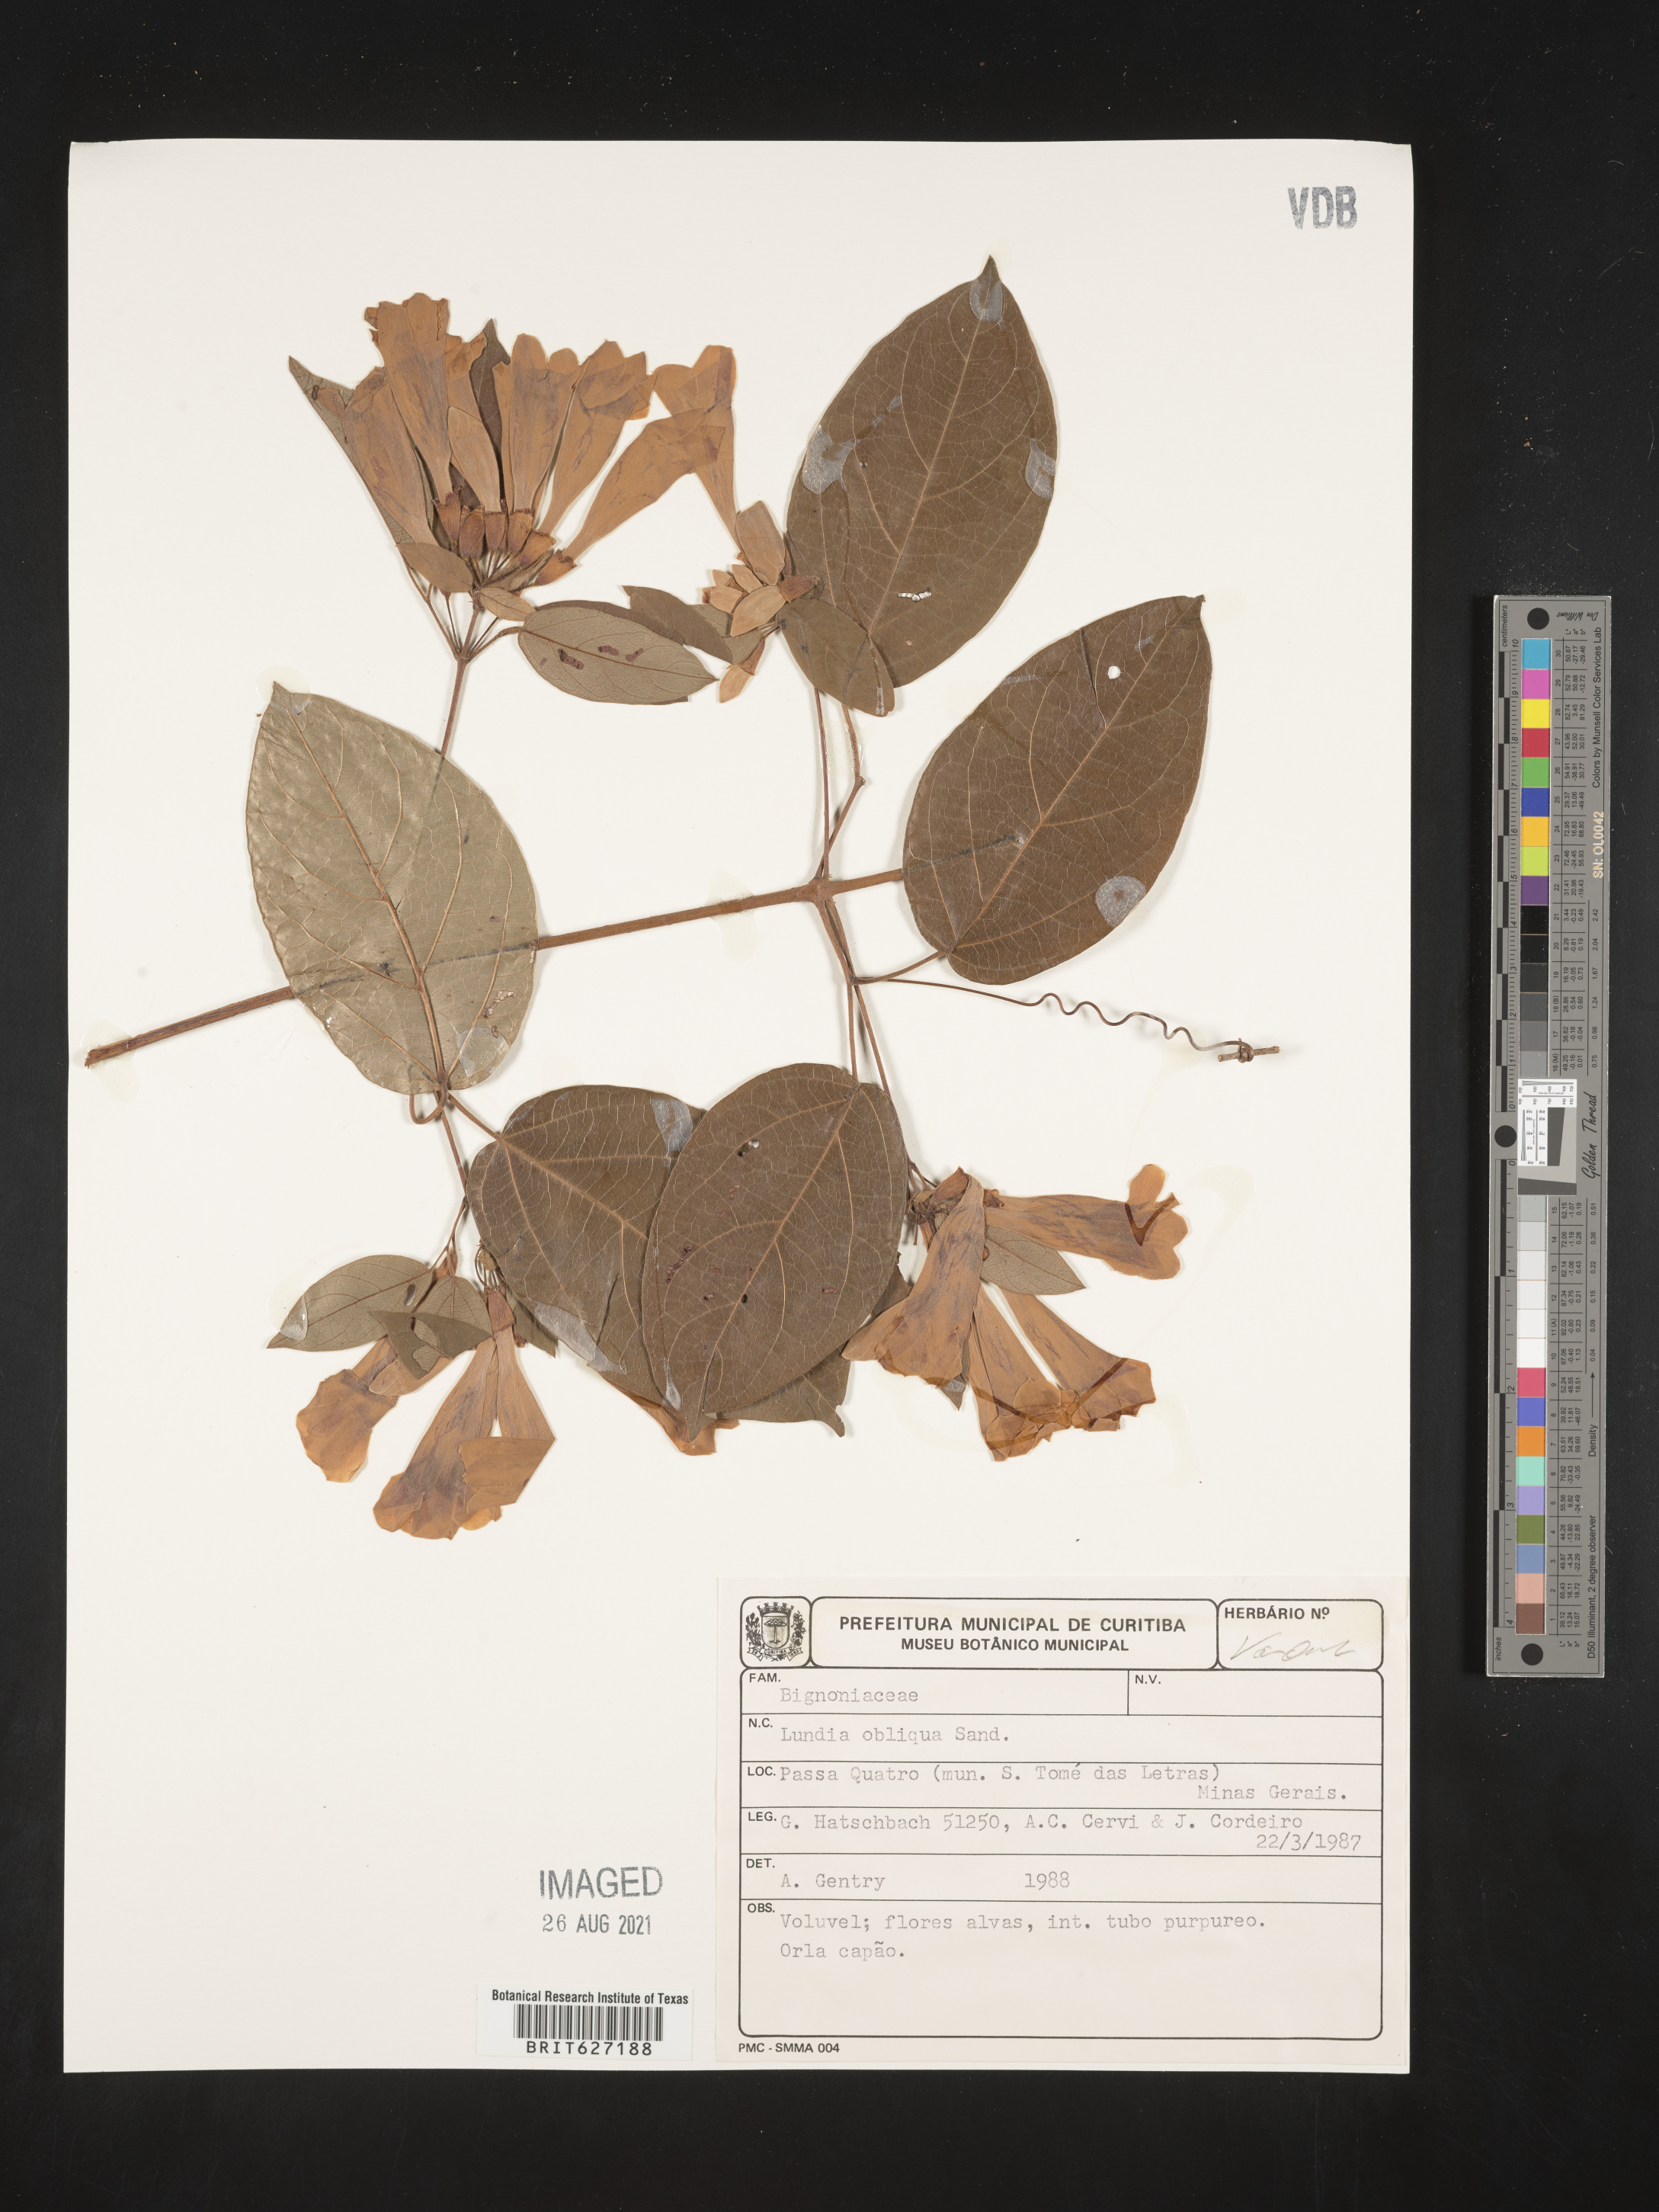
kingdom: Plantae
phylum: Tracheophyta
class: Magnoliopsida
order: Lamiales
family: Bignoniaceae
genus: Lundia
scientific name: Lundia obliqua
